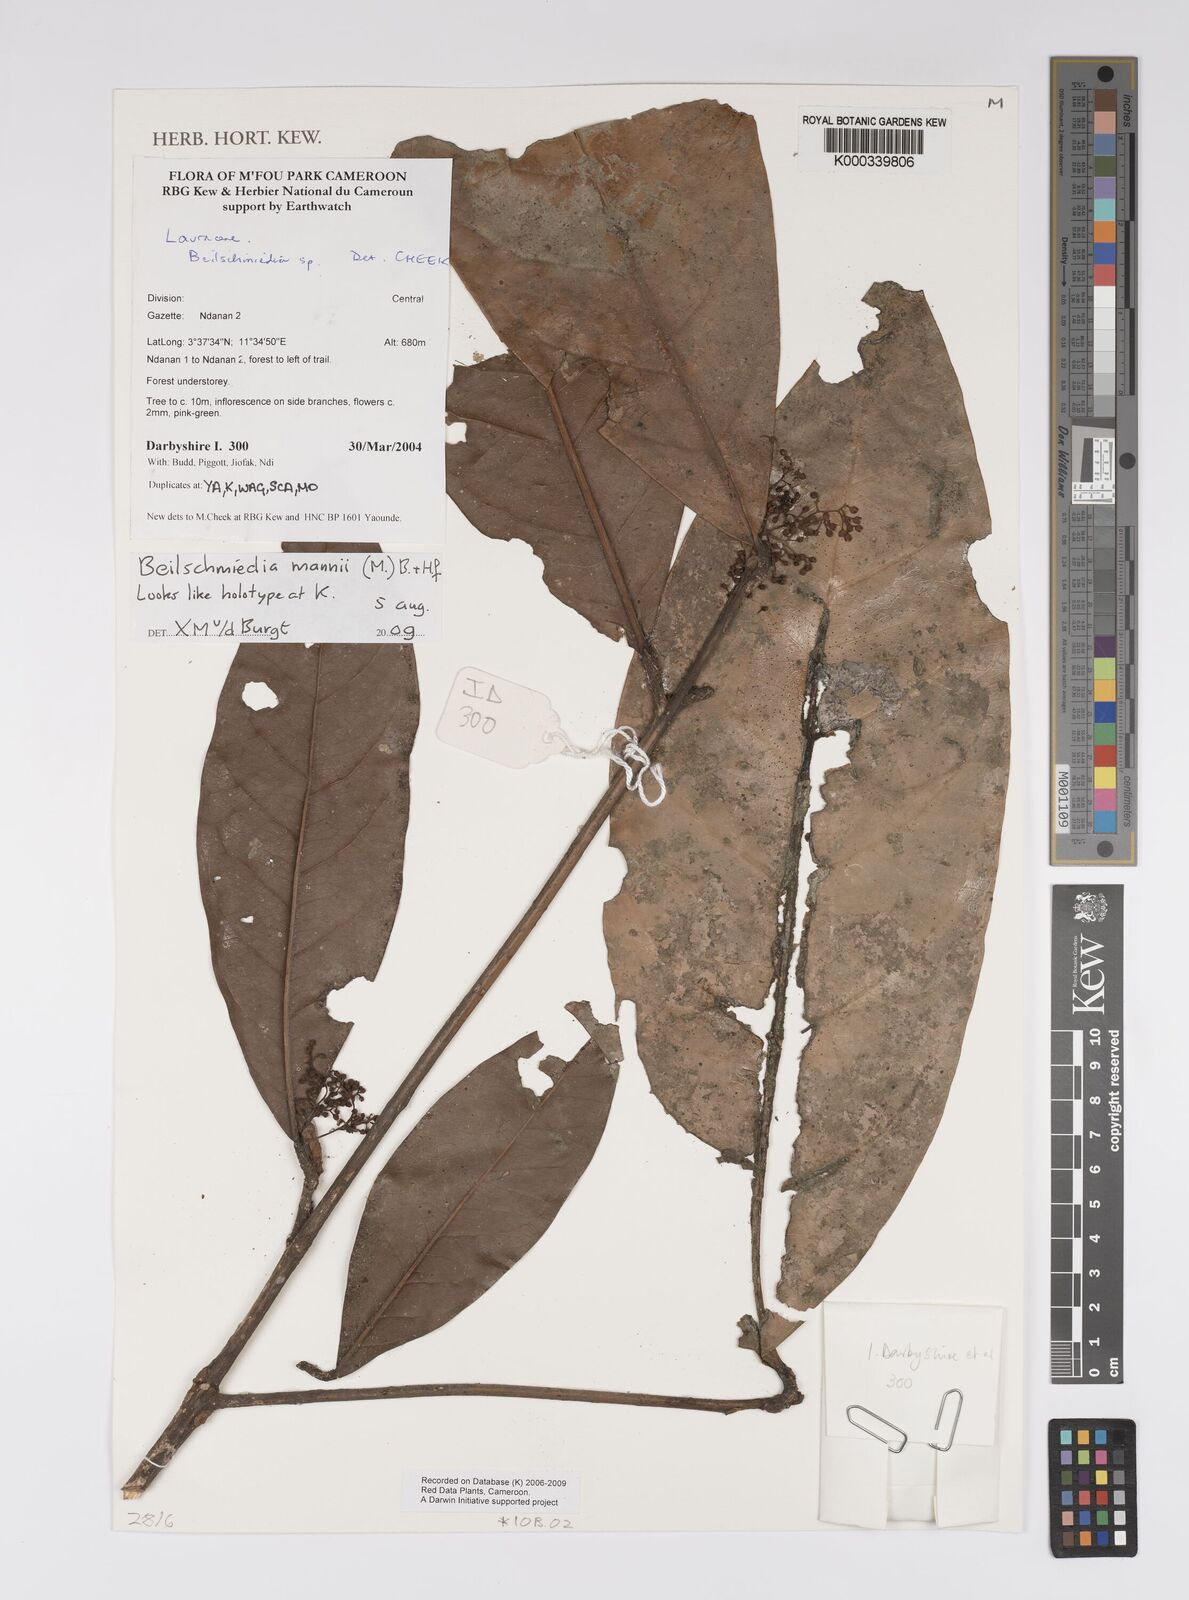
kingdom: Plantae
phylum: Tracheophyta
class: Magnoliopsida
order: Laurales
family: Lauraceae
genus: Beilschmiedia
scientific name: Beilschmiedia
